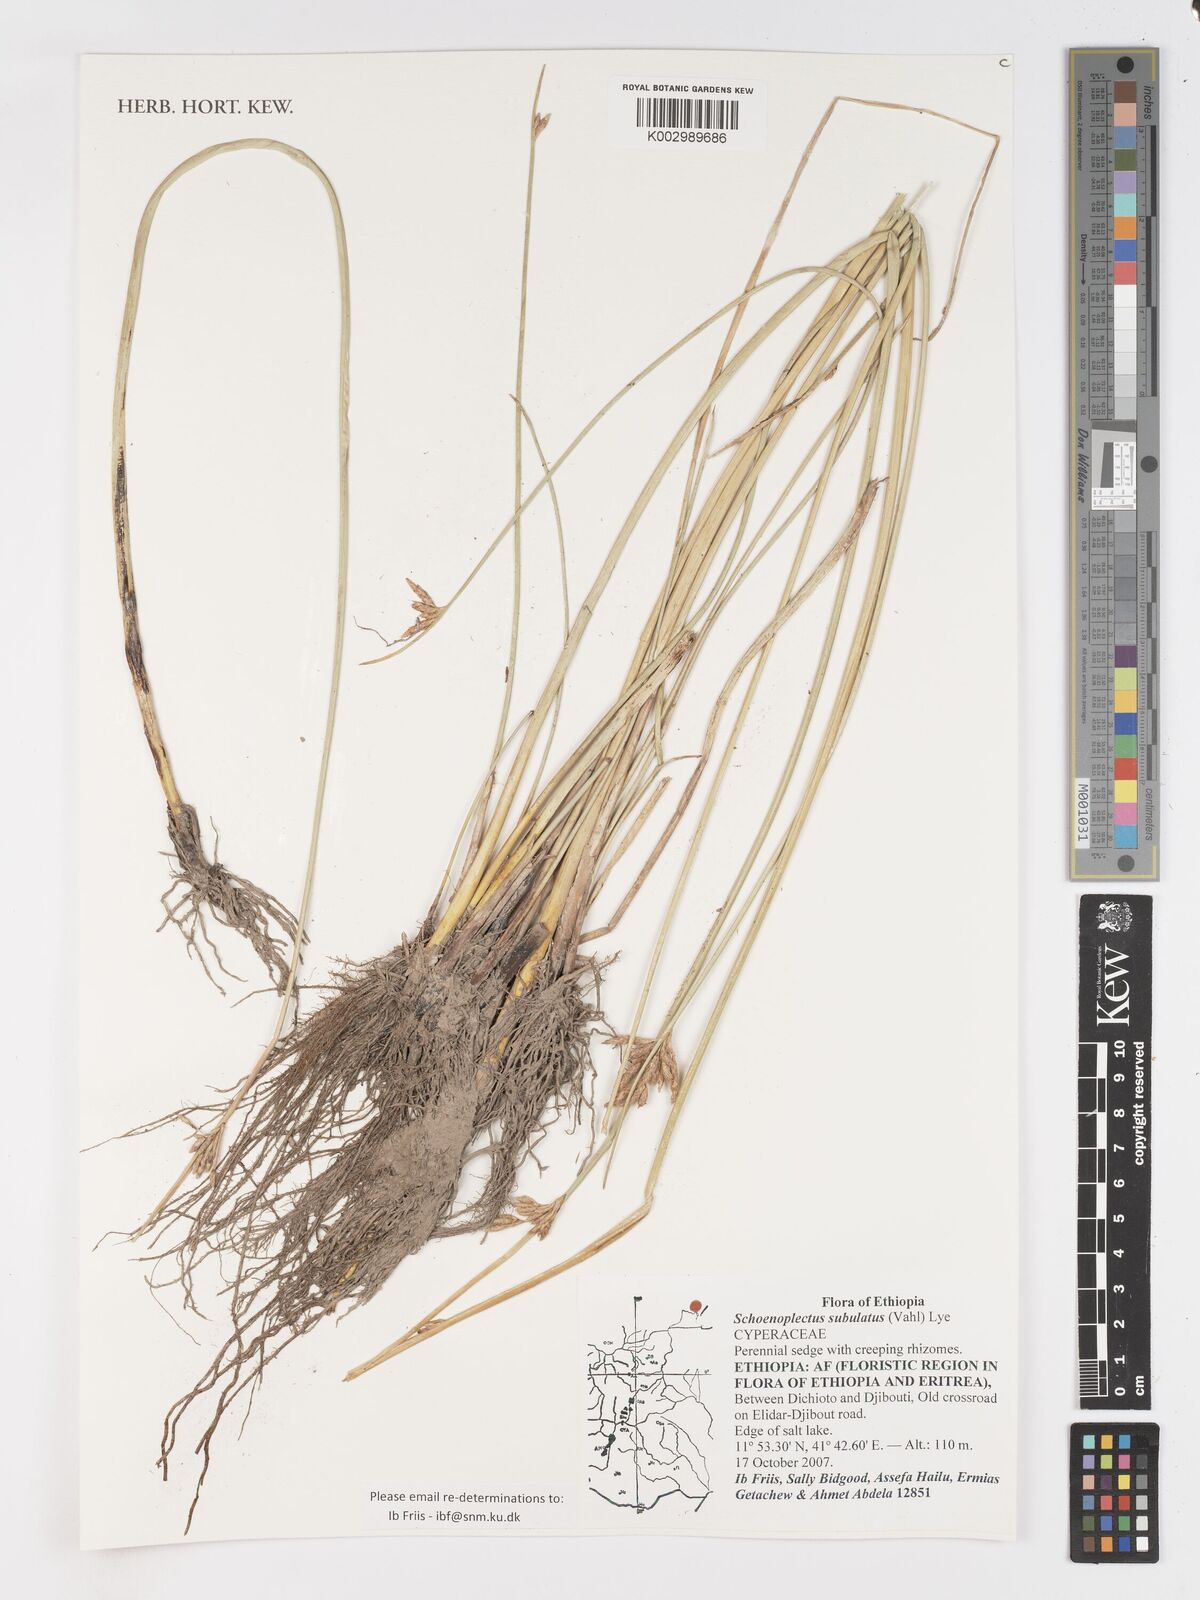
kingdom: Plantae
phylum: Tracheophyta
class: Liliopsida
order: Poales
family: Cyperaceae
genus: Schoenoplectus
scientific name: Schoenoplectus subulatus
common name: Coast club-rush
